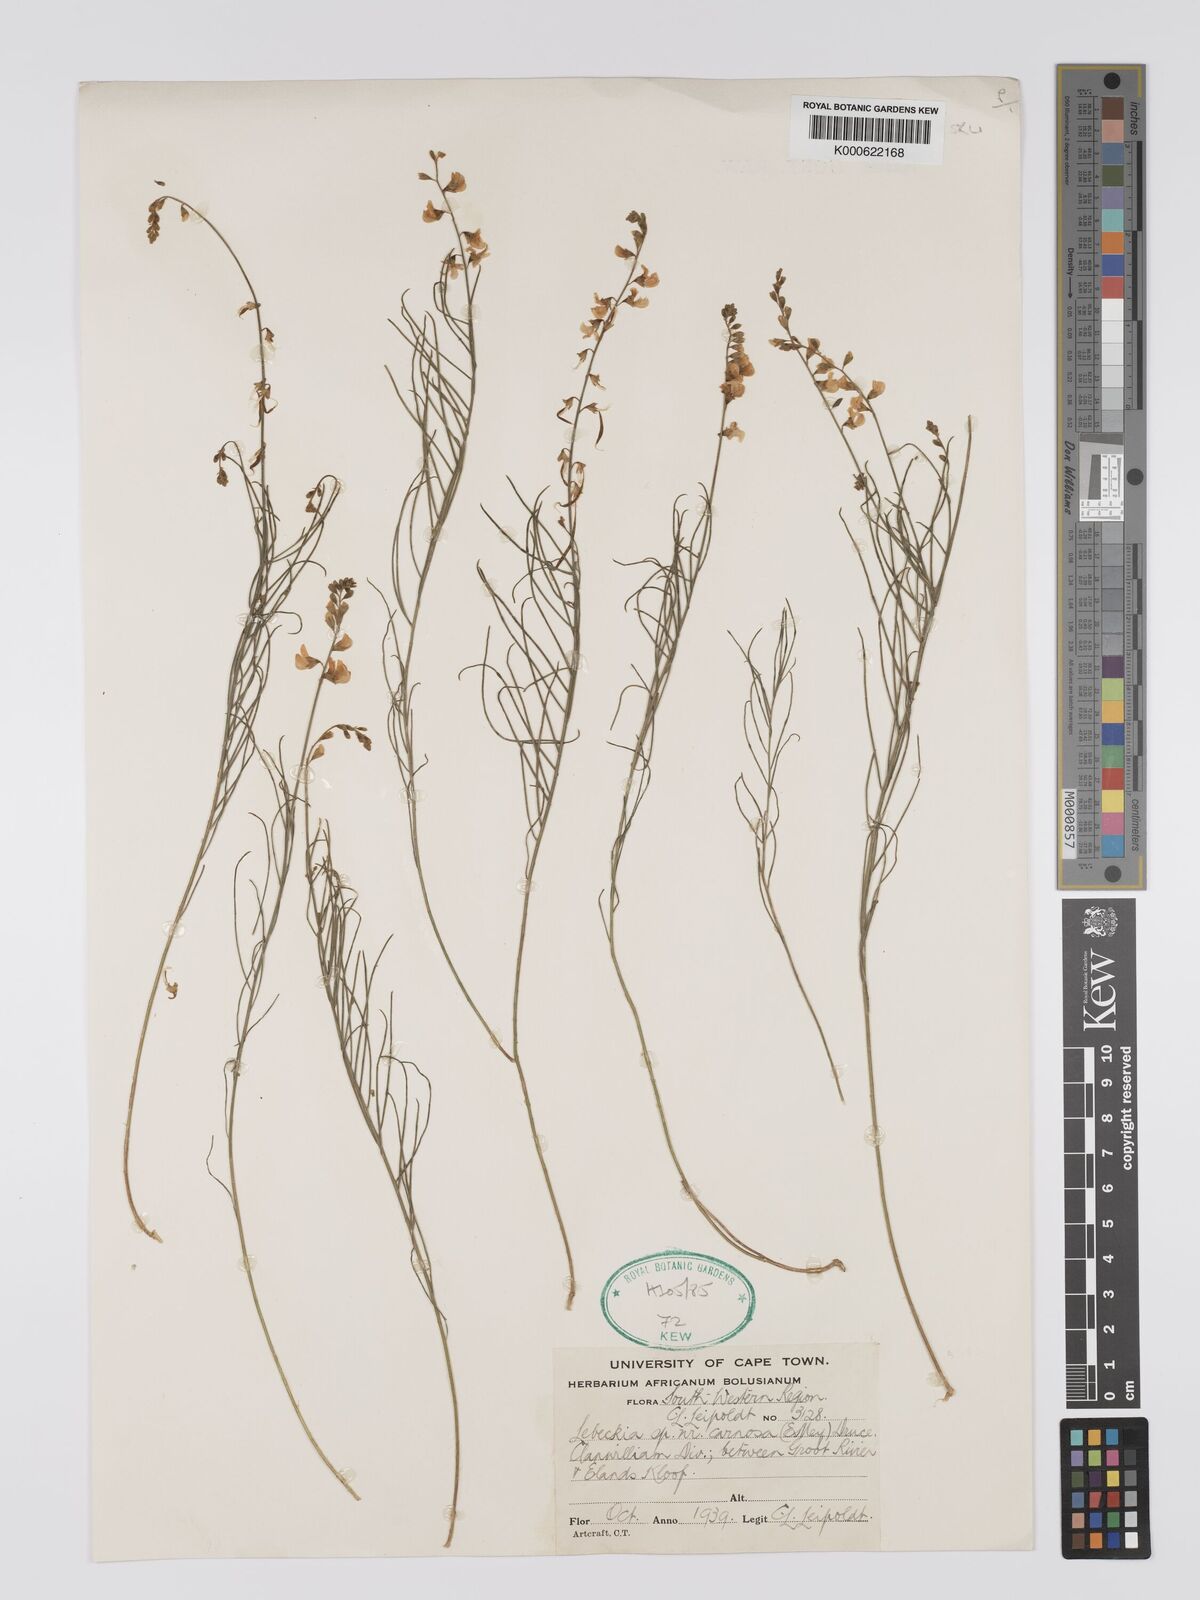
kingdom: Plantae
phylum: Tracheophyta
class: Magnoliopsida
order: Fabales
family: Fabaceae
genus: Lebeckia
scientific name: Lebeckia contaminata
